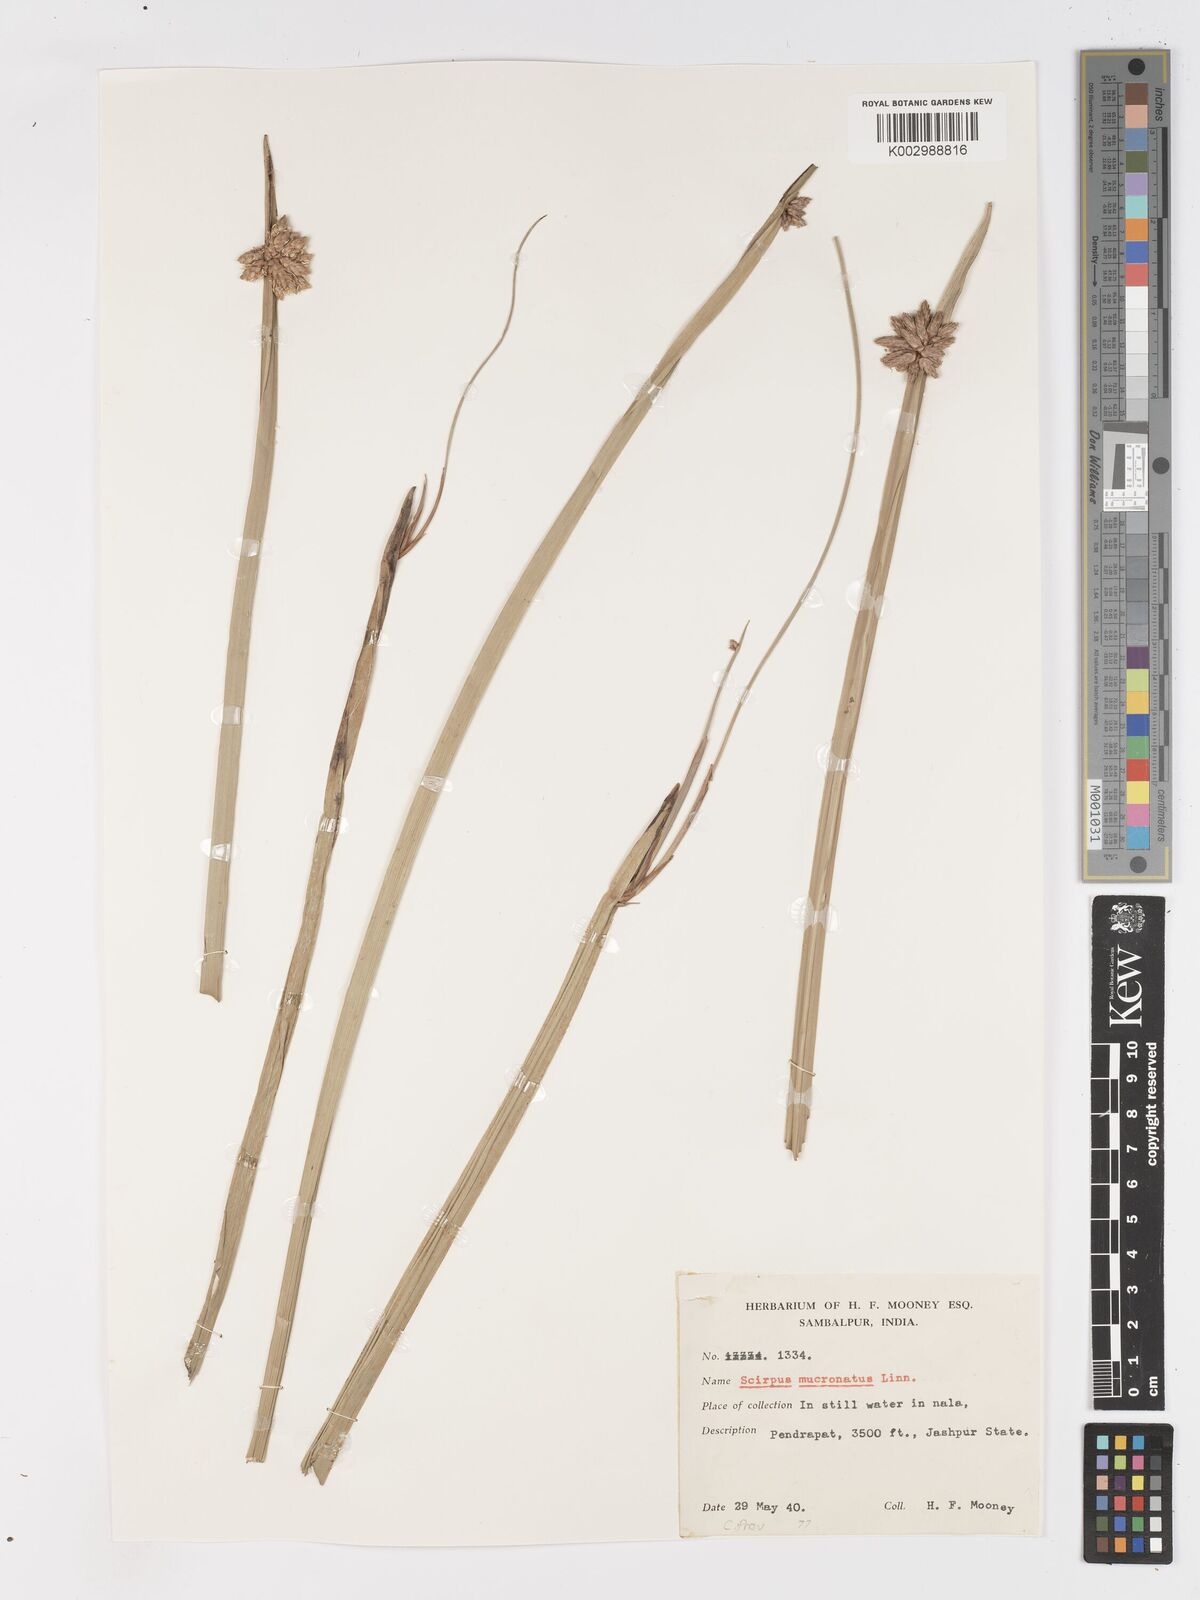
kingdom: Plantae
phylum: Tracheophyta
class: Liliopsida
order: Poales
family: Cyperaceae
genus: Schoenoplectiella
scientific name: Schoenoplectiella mucronata
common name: Bog bulrush
